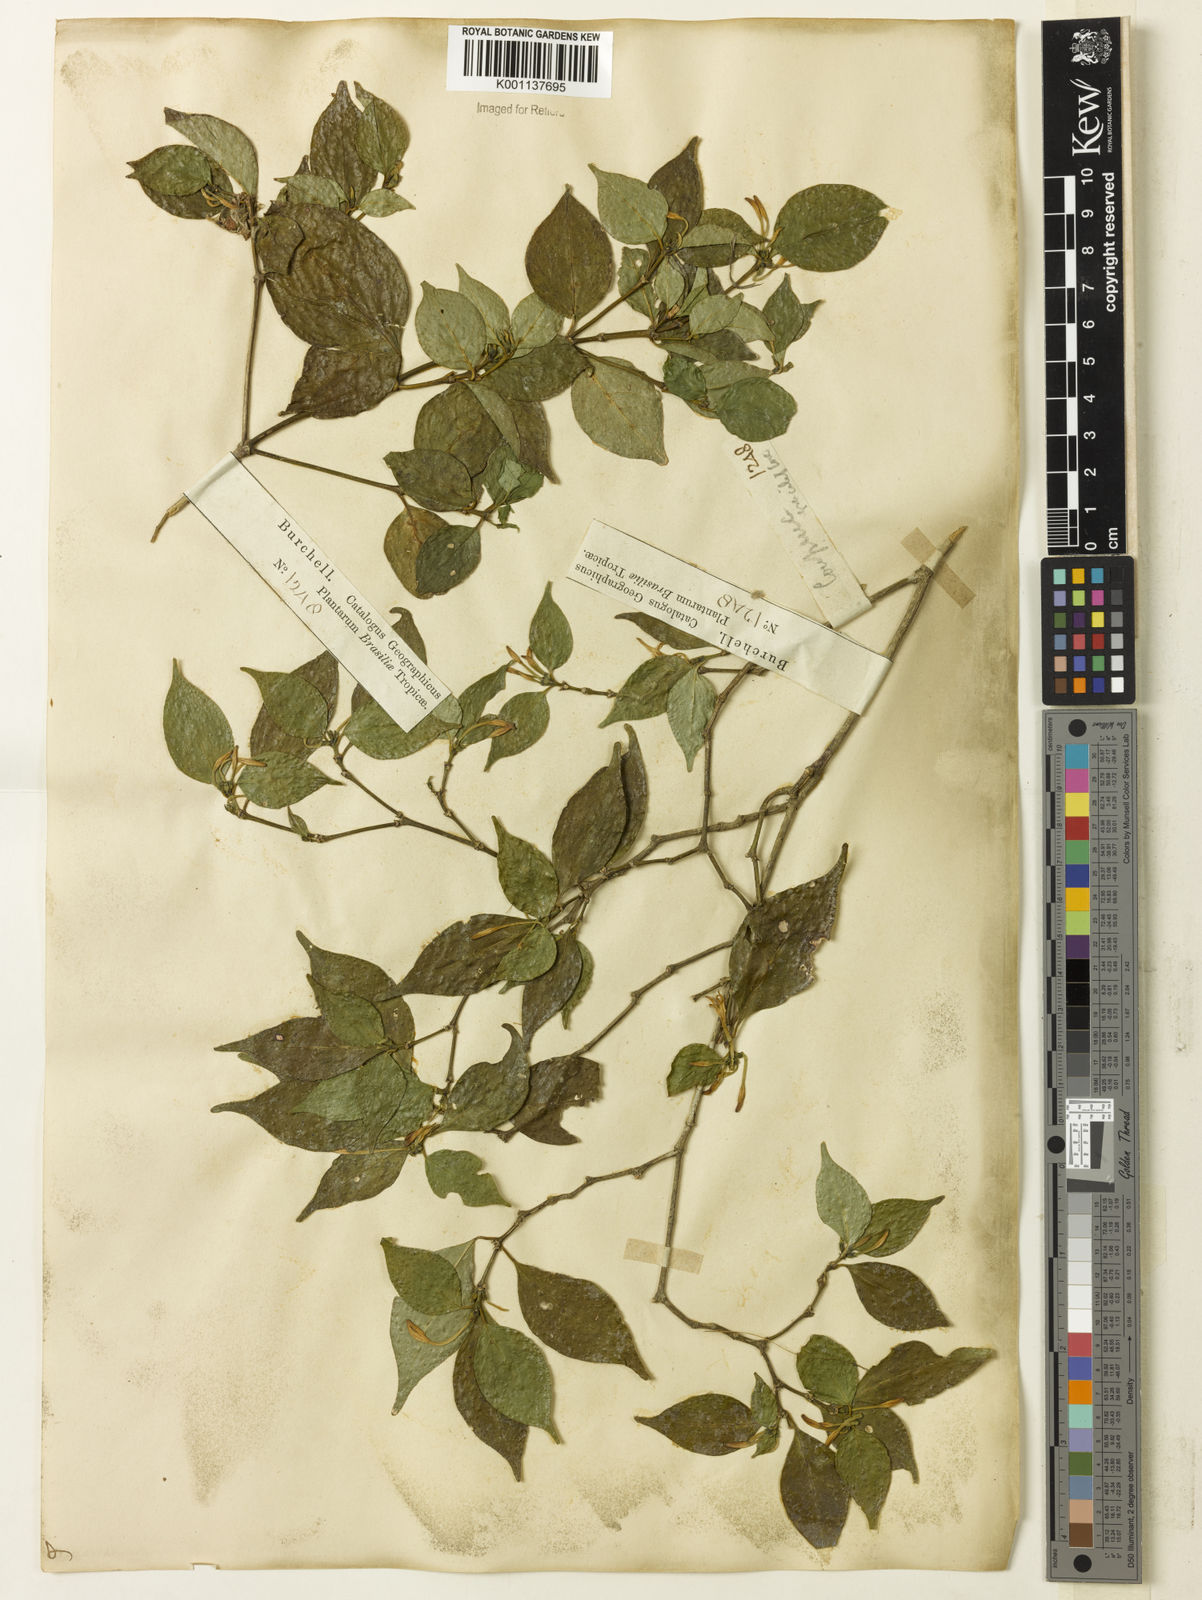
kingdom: Plantae
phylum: Tracheophyta
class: Magnoliopsida
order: Gentianales
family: Rubiaceae
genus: Coussarea
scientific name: Coussarea
